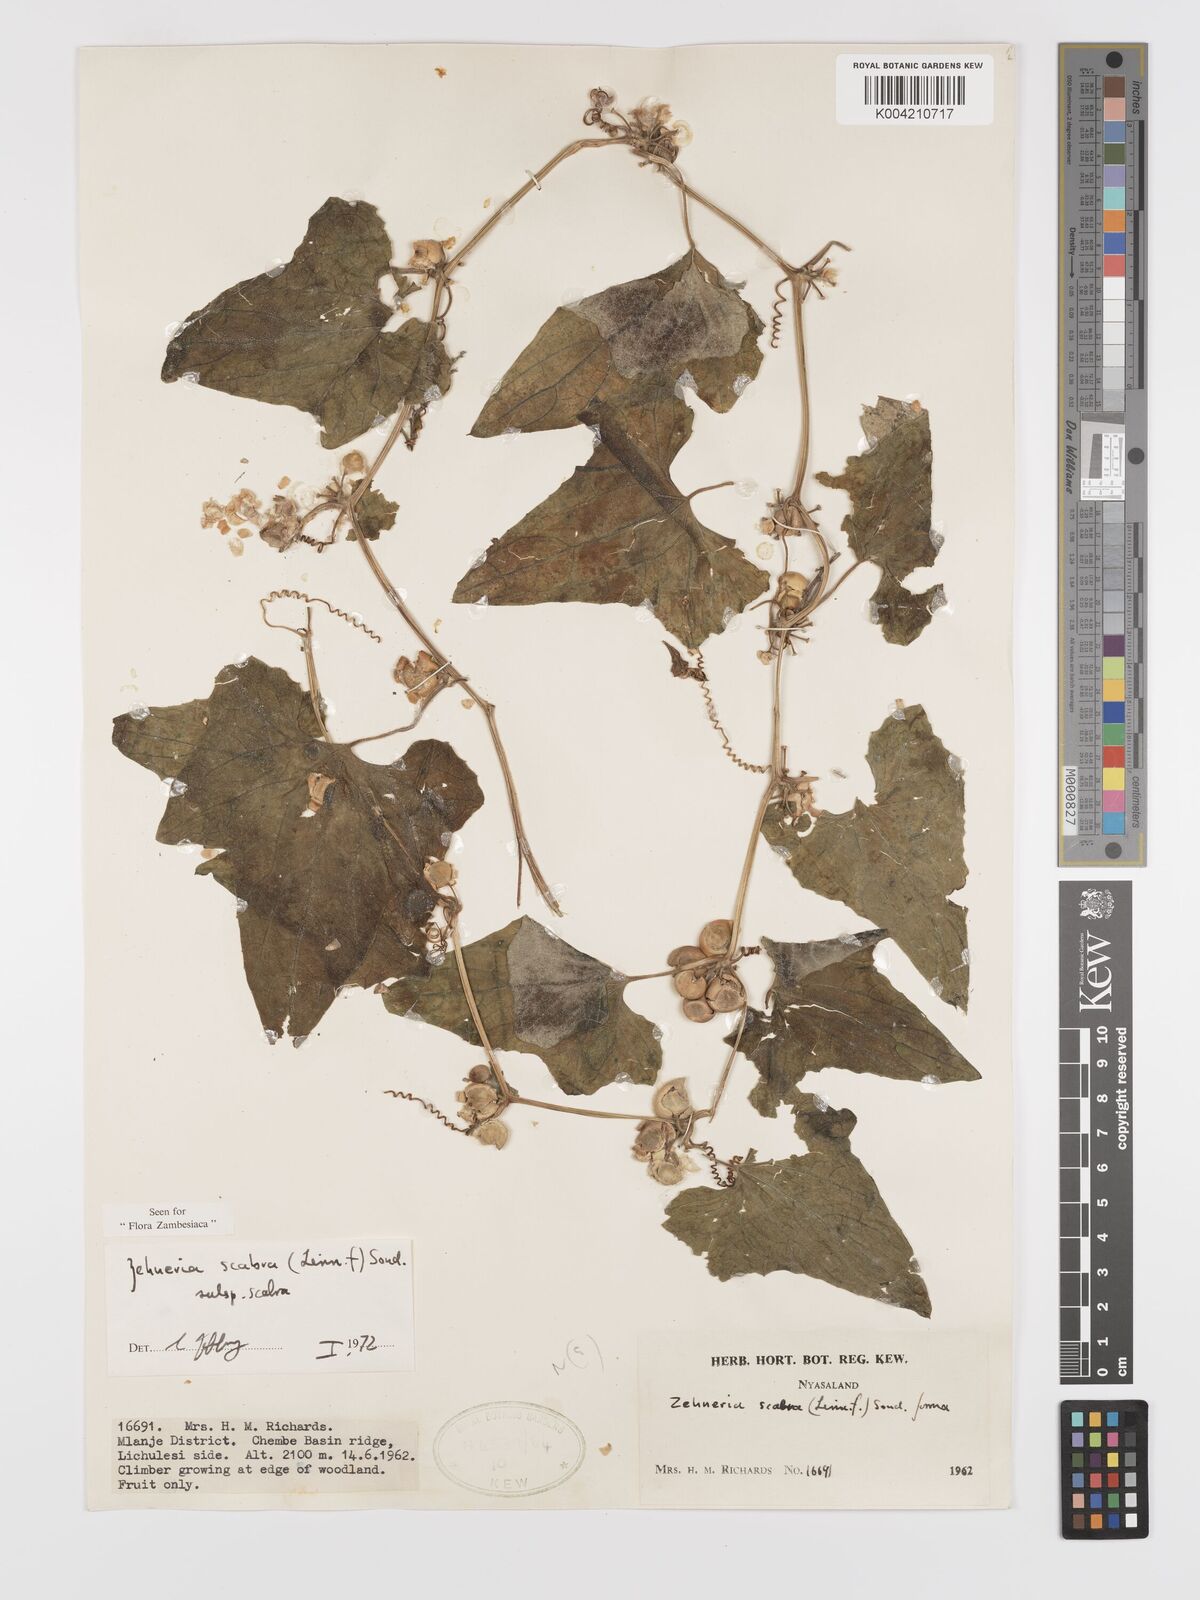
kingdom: Plantae
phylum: Tracheophyta
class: Magnoliopsida
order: Cucurbitales
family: Cucurbitaceae
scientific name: Cucurbitaceae
